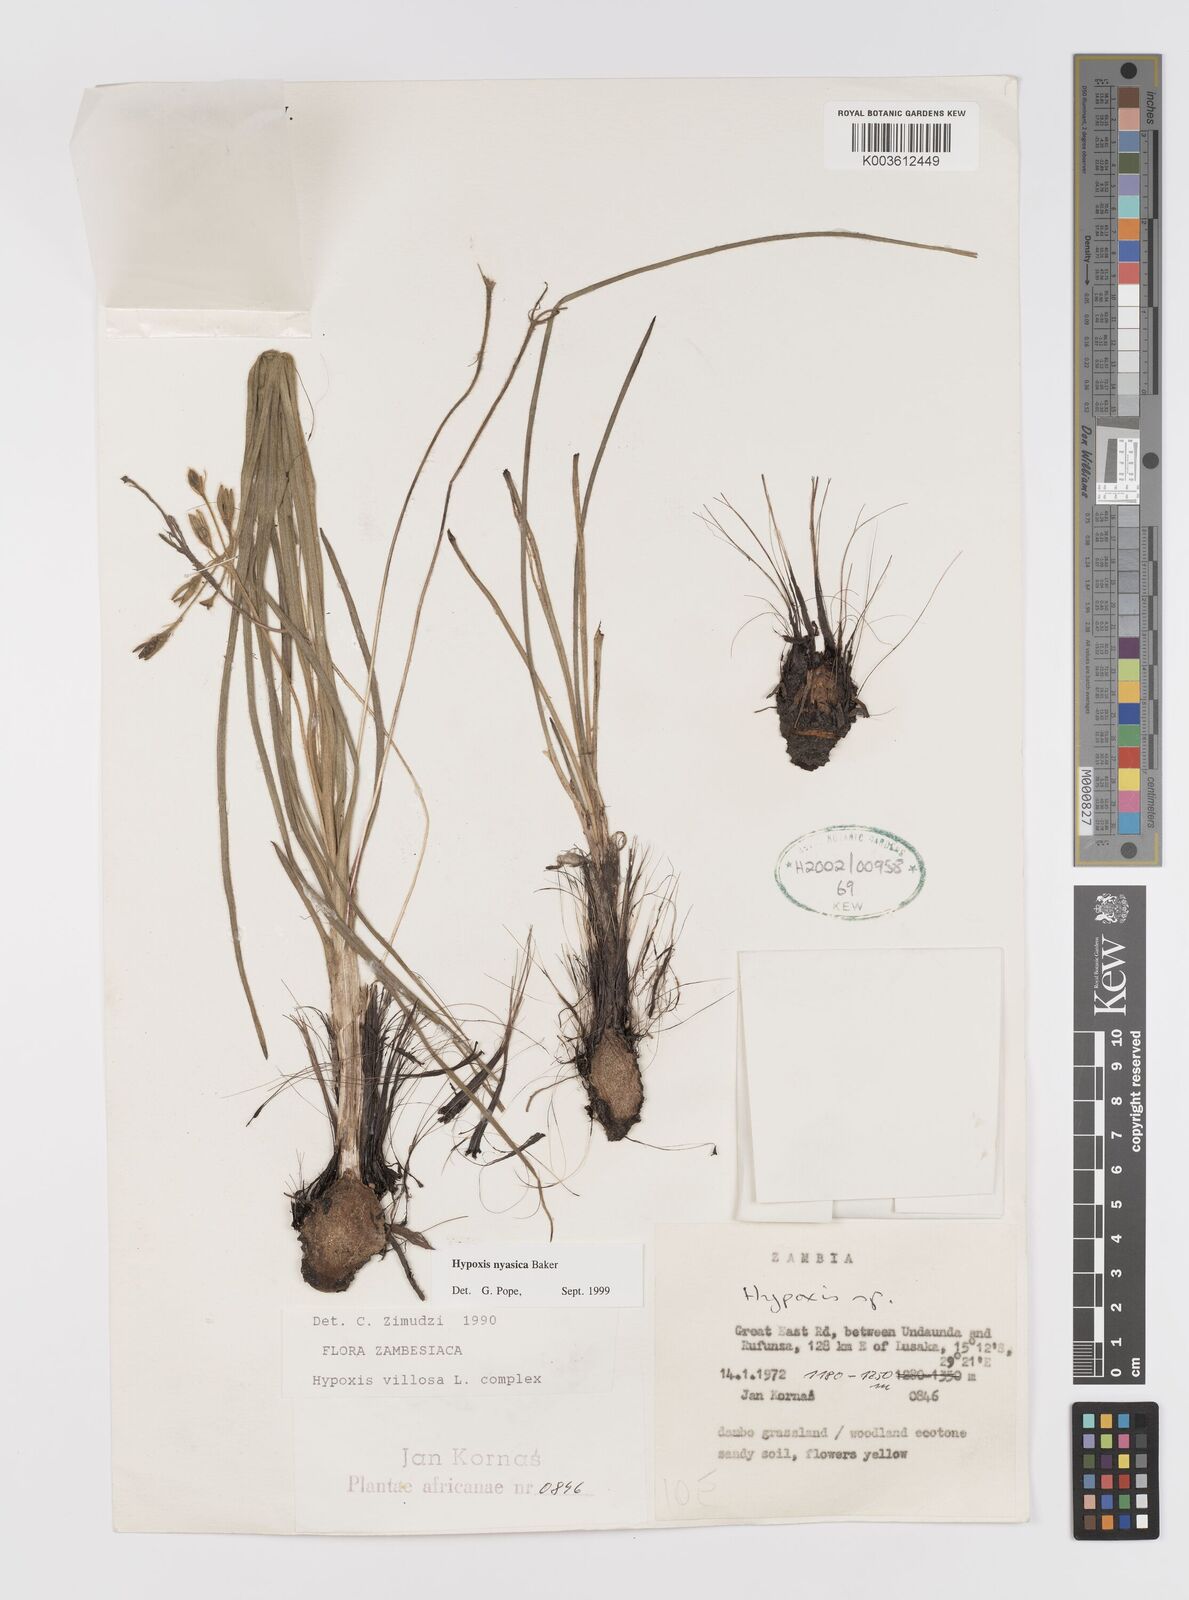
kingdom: Plantae
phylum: Tracheophyta
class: Liliopsida
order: Asparagales
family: Hypoxidaceae
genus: Hypoxis
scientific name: Hypoxis nyasica
